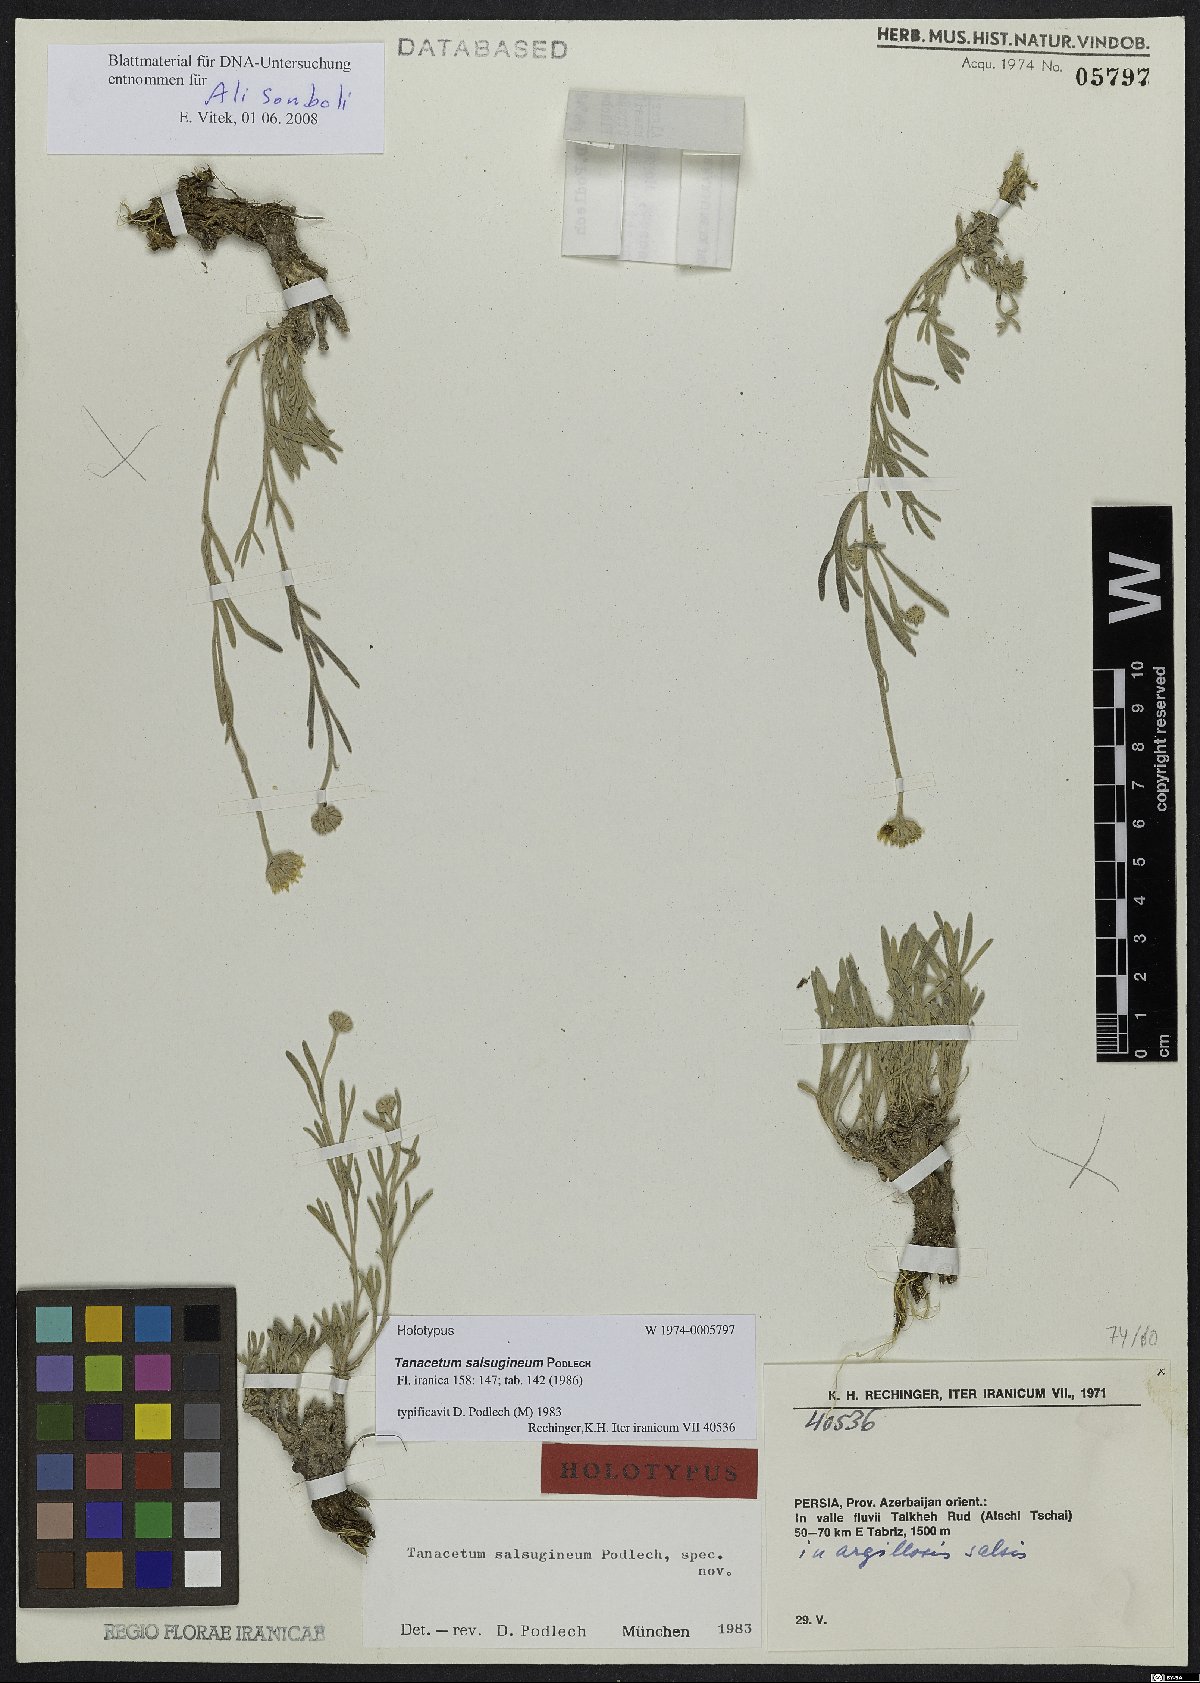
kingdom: Plantae
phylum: Tracheophyta
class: Magnoliopsida
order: Asterales
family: Asteraceae
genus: Tanacetum
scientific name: Tanacetum salsugineum
